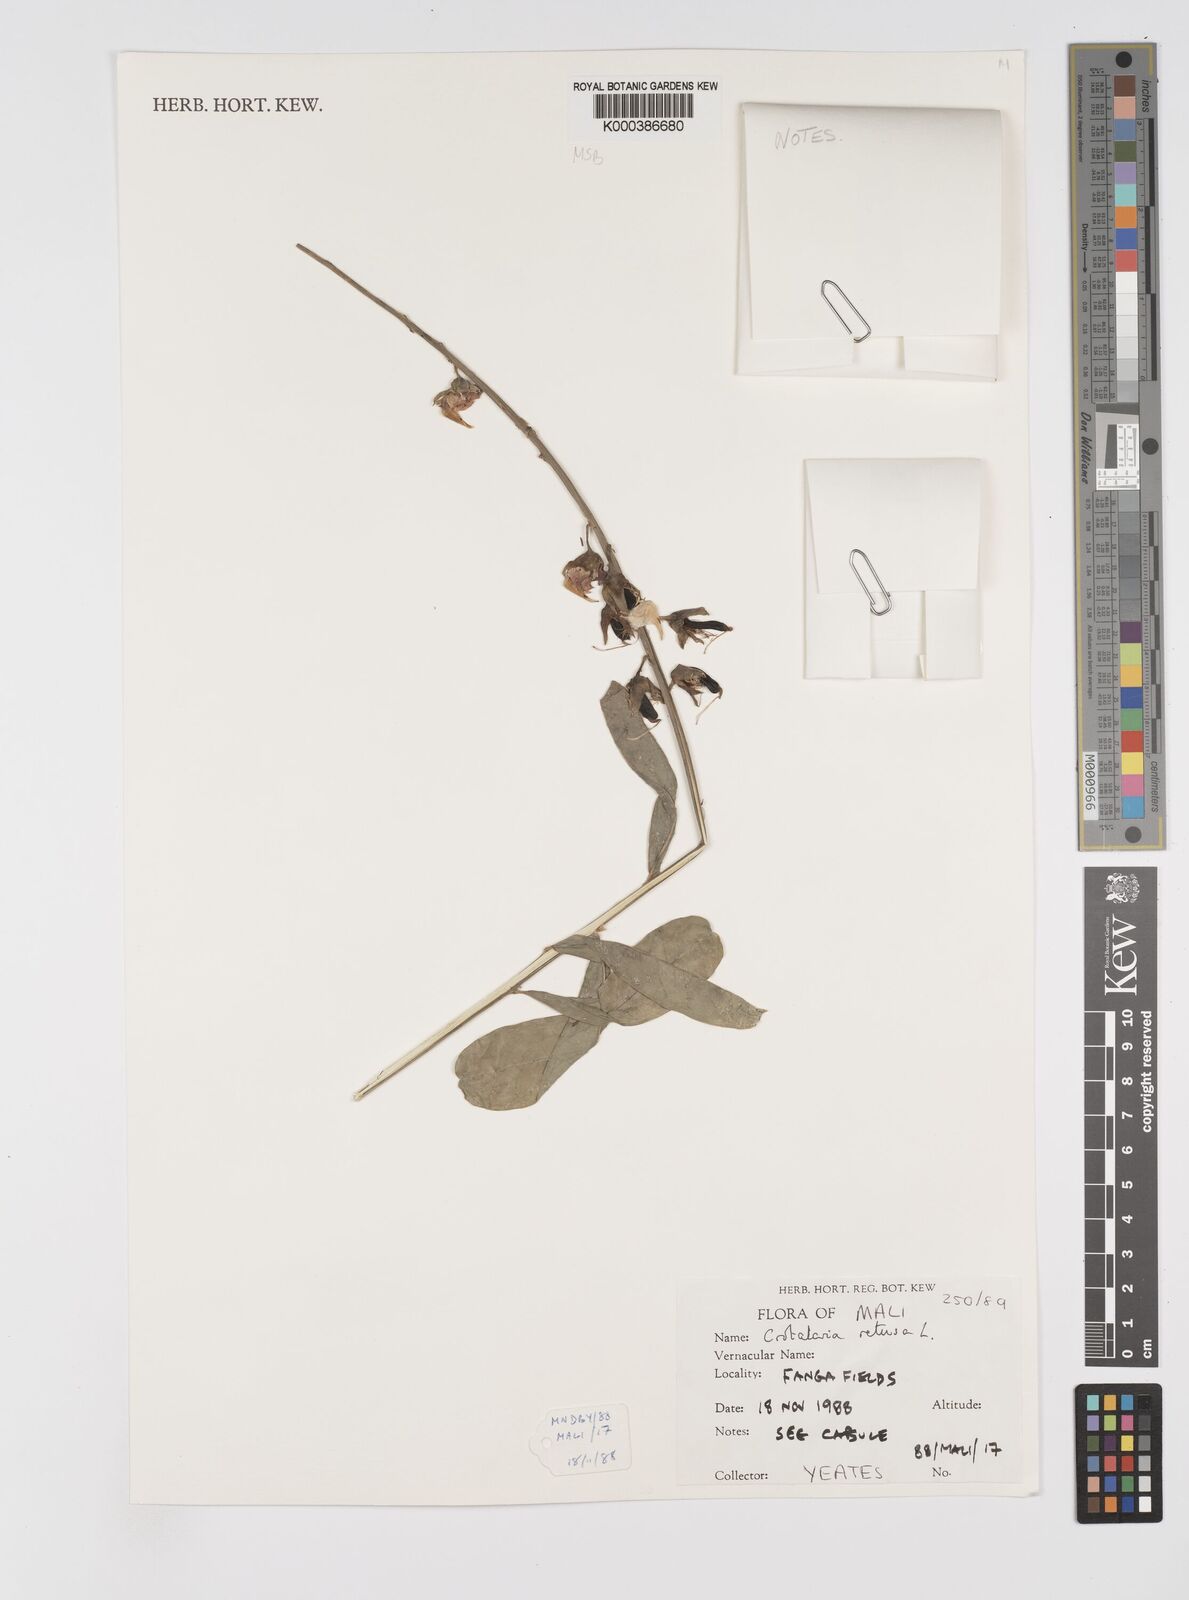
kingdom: Plantae
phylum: Tracheophyta
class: Magnoliopsida
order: Fabales
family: Fabaceae
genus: Crotalaria
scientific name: Crotalaria retusa
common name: Rattleweed
